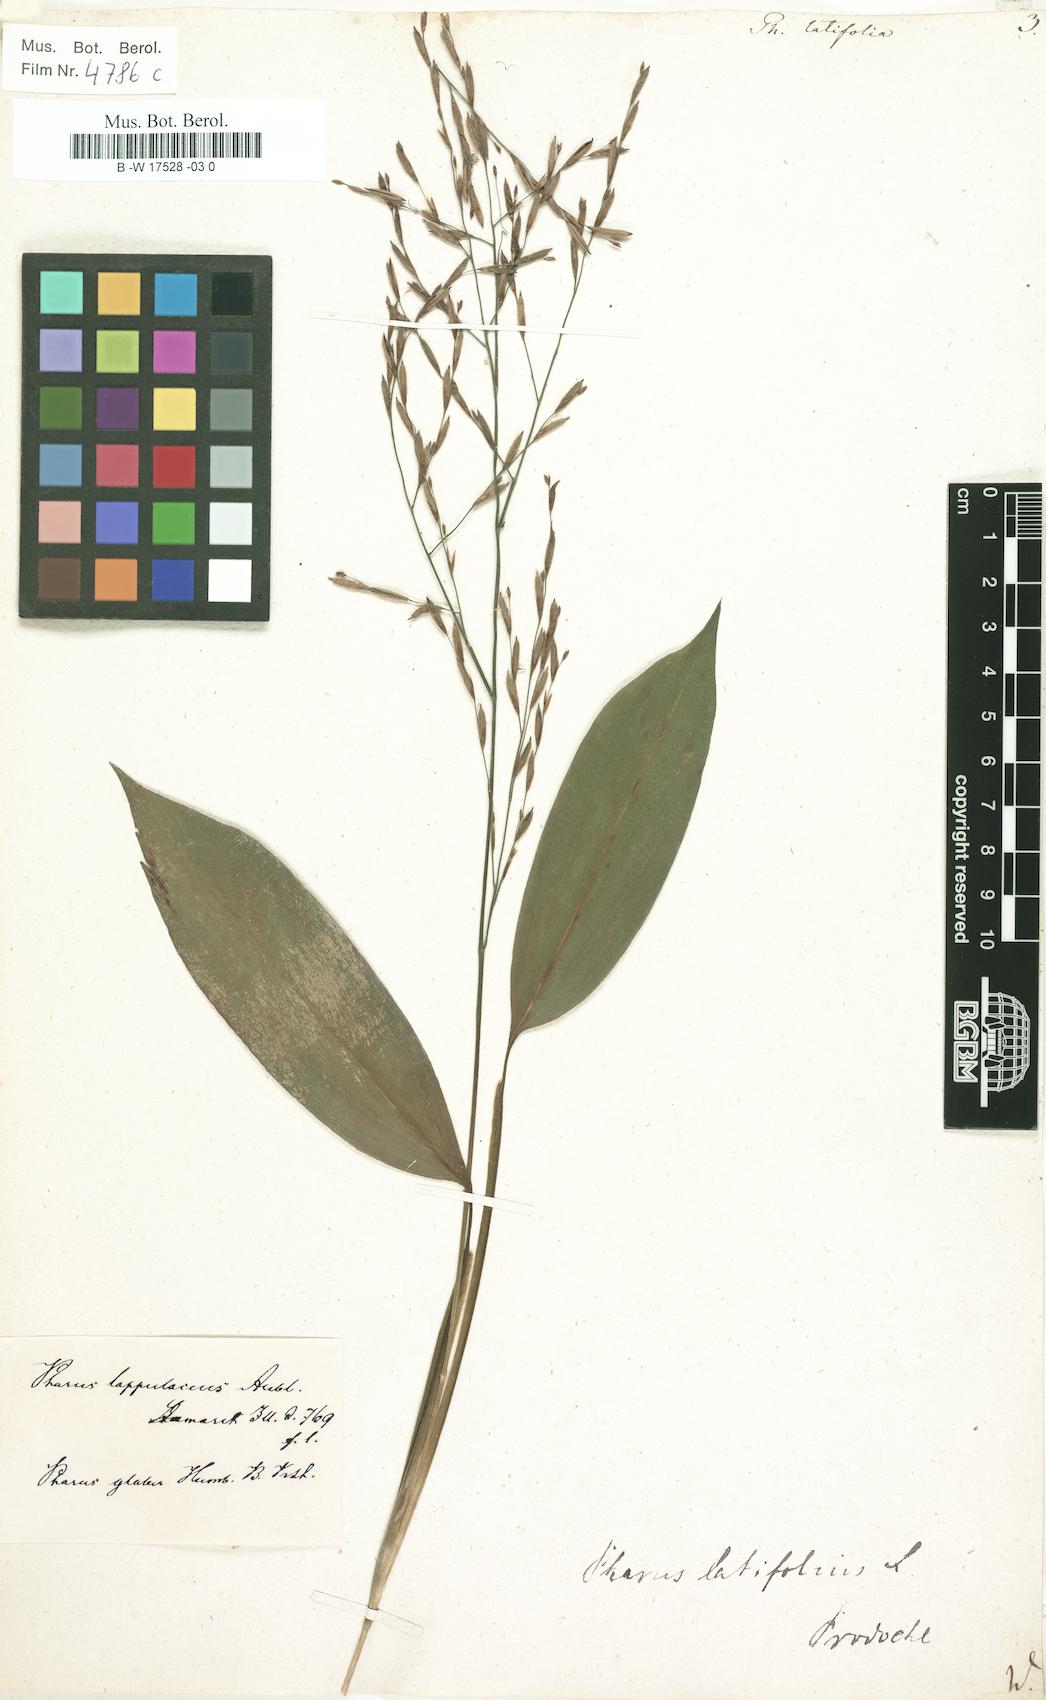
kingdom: Plantae
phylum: Tracheophyta
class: Liliopsida
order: Poales
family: Poaceae
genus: Pharus
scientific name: Pharus latifolius
